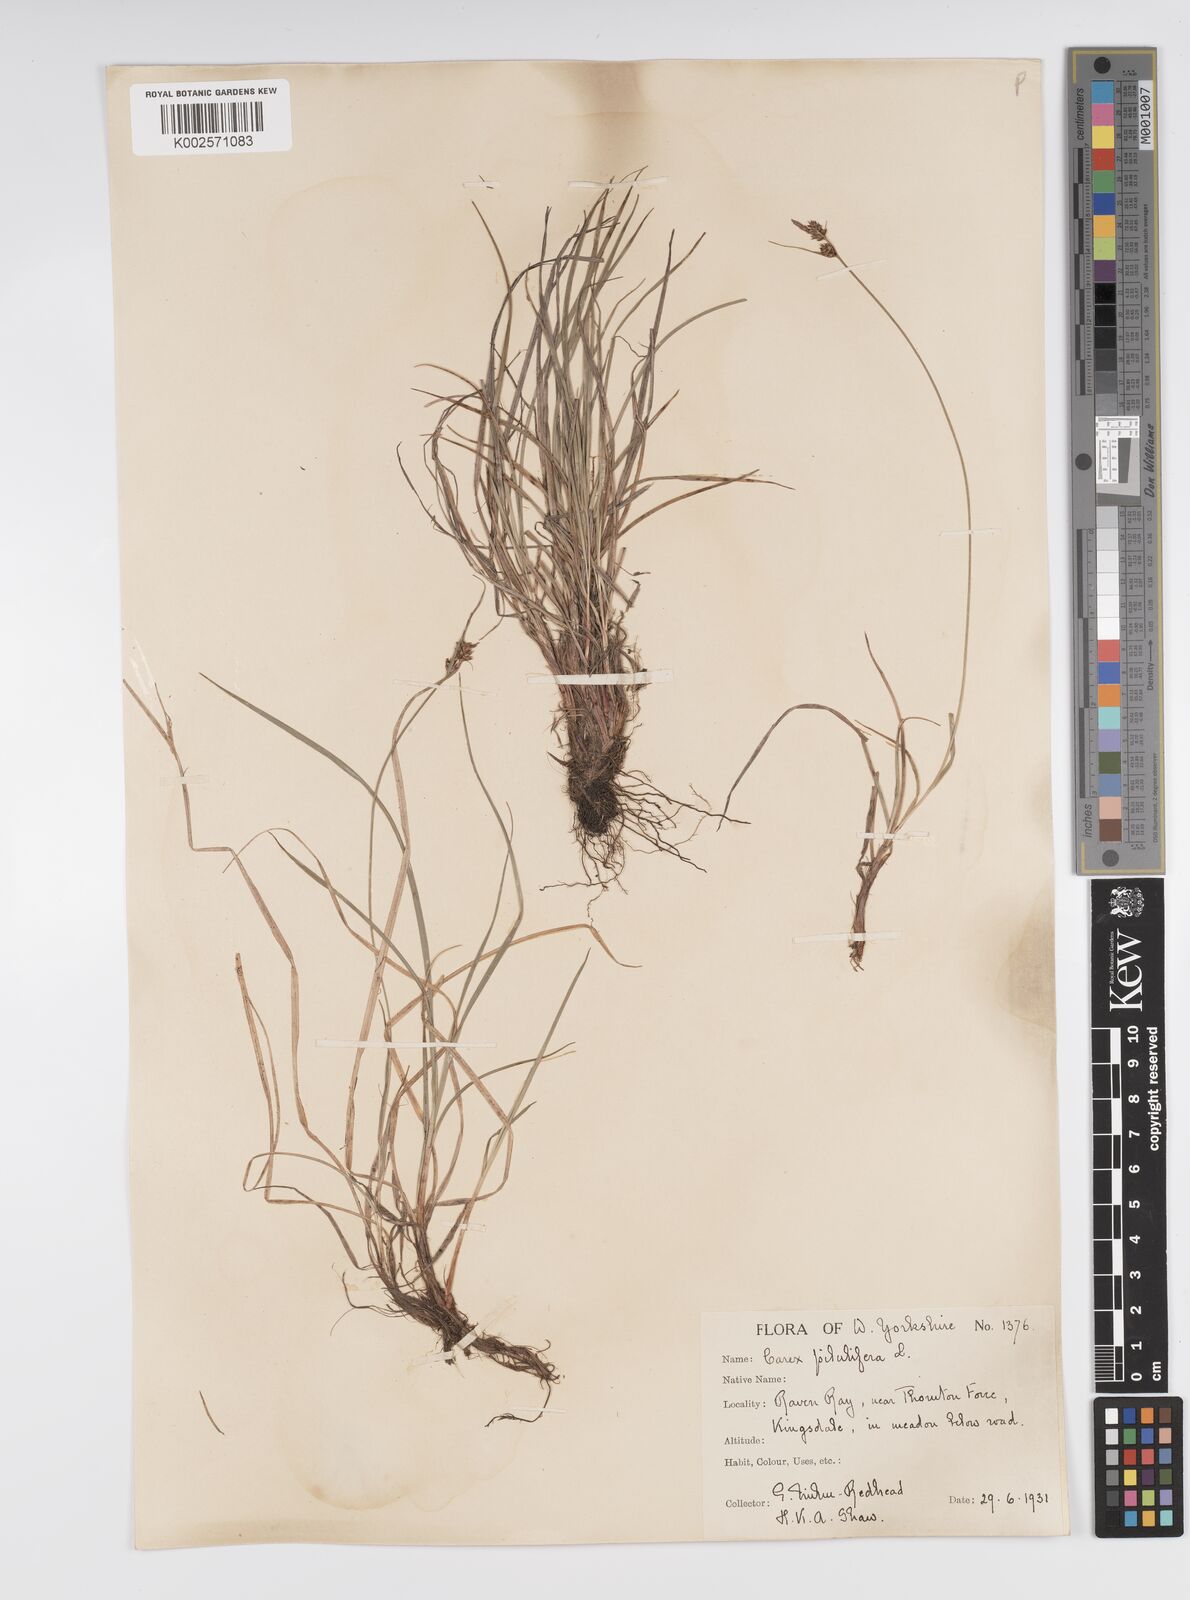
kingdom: Plantae
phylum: Tracheophyta
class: Liliopsida
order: Poales
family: Cyperaceae
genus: Carex
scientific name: Carex pilulifera
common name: Pill sedge
